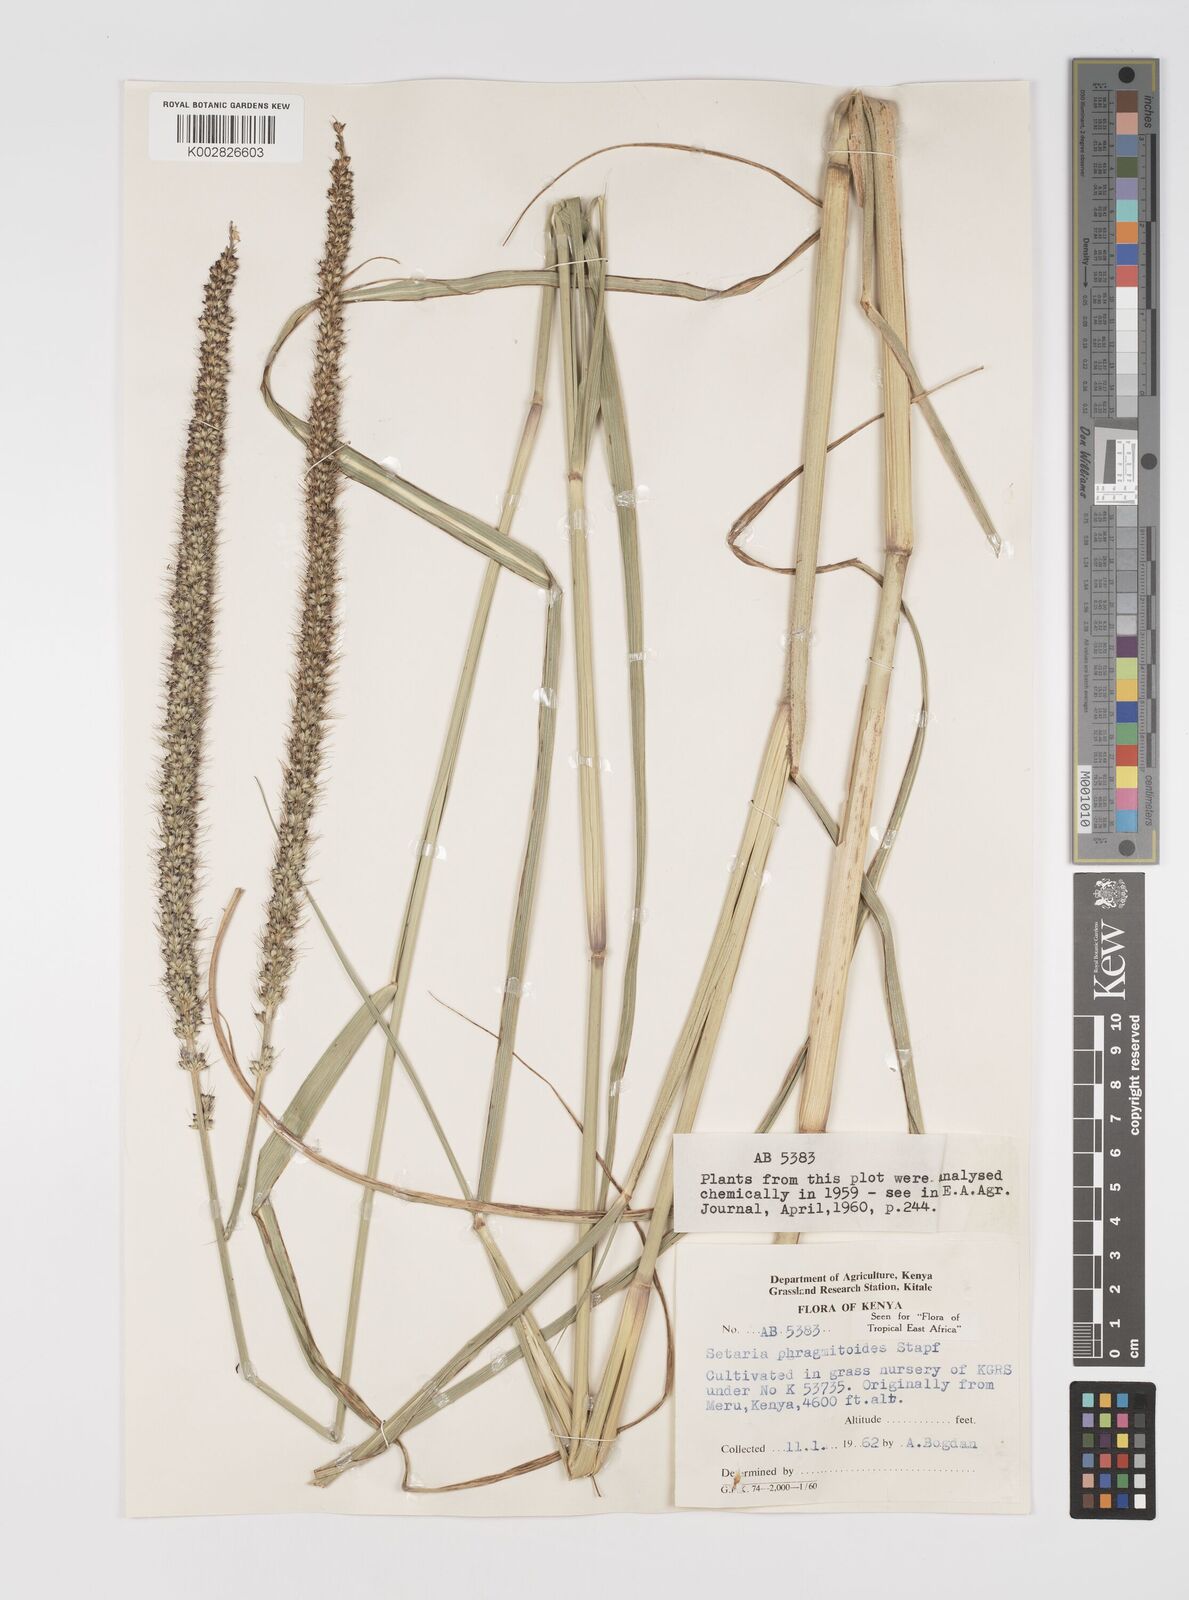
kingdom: Plantae
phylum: Tracheophyta
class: Liliopsida
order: Poales
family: Poaceae
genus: Setaria
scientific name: Setaria incrassata
